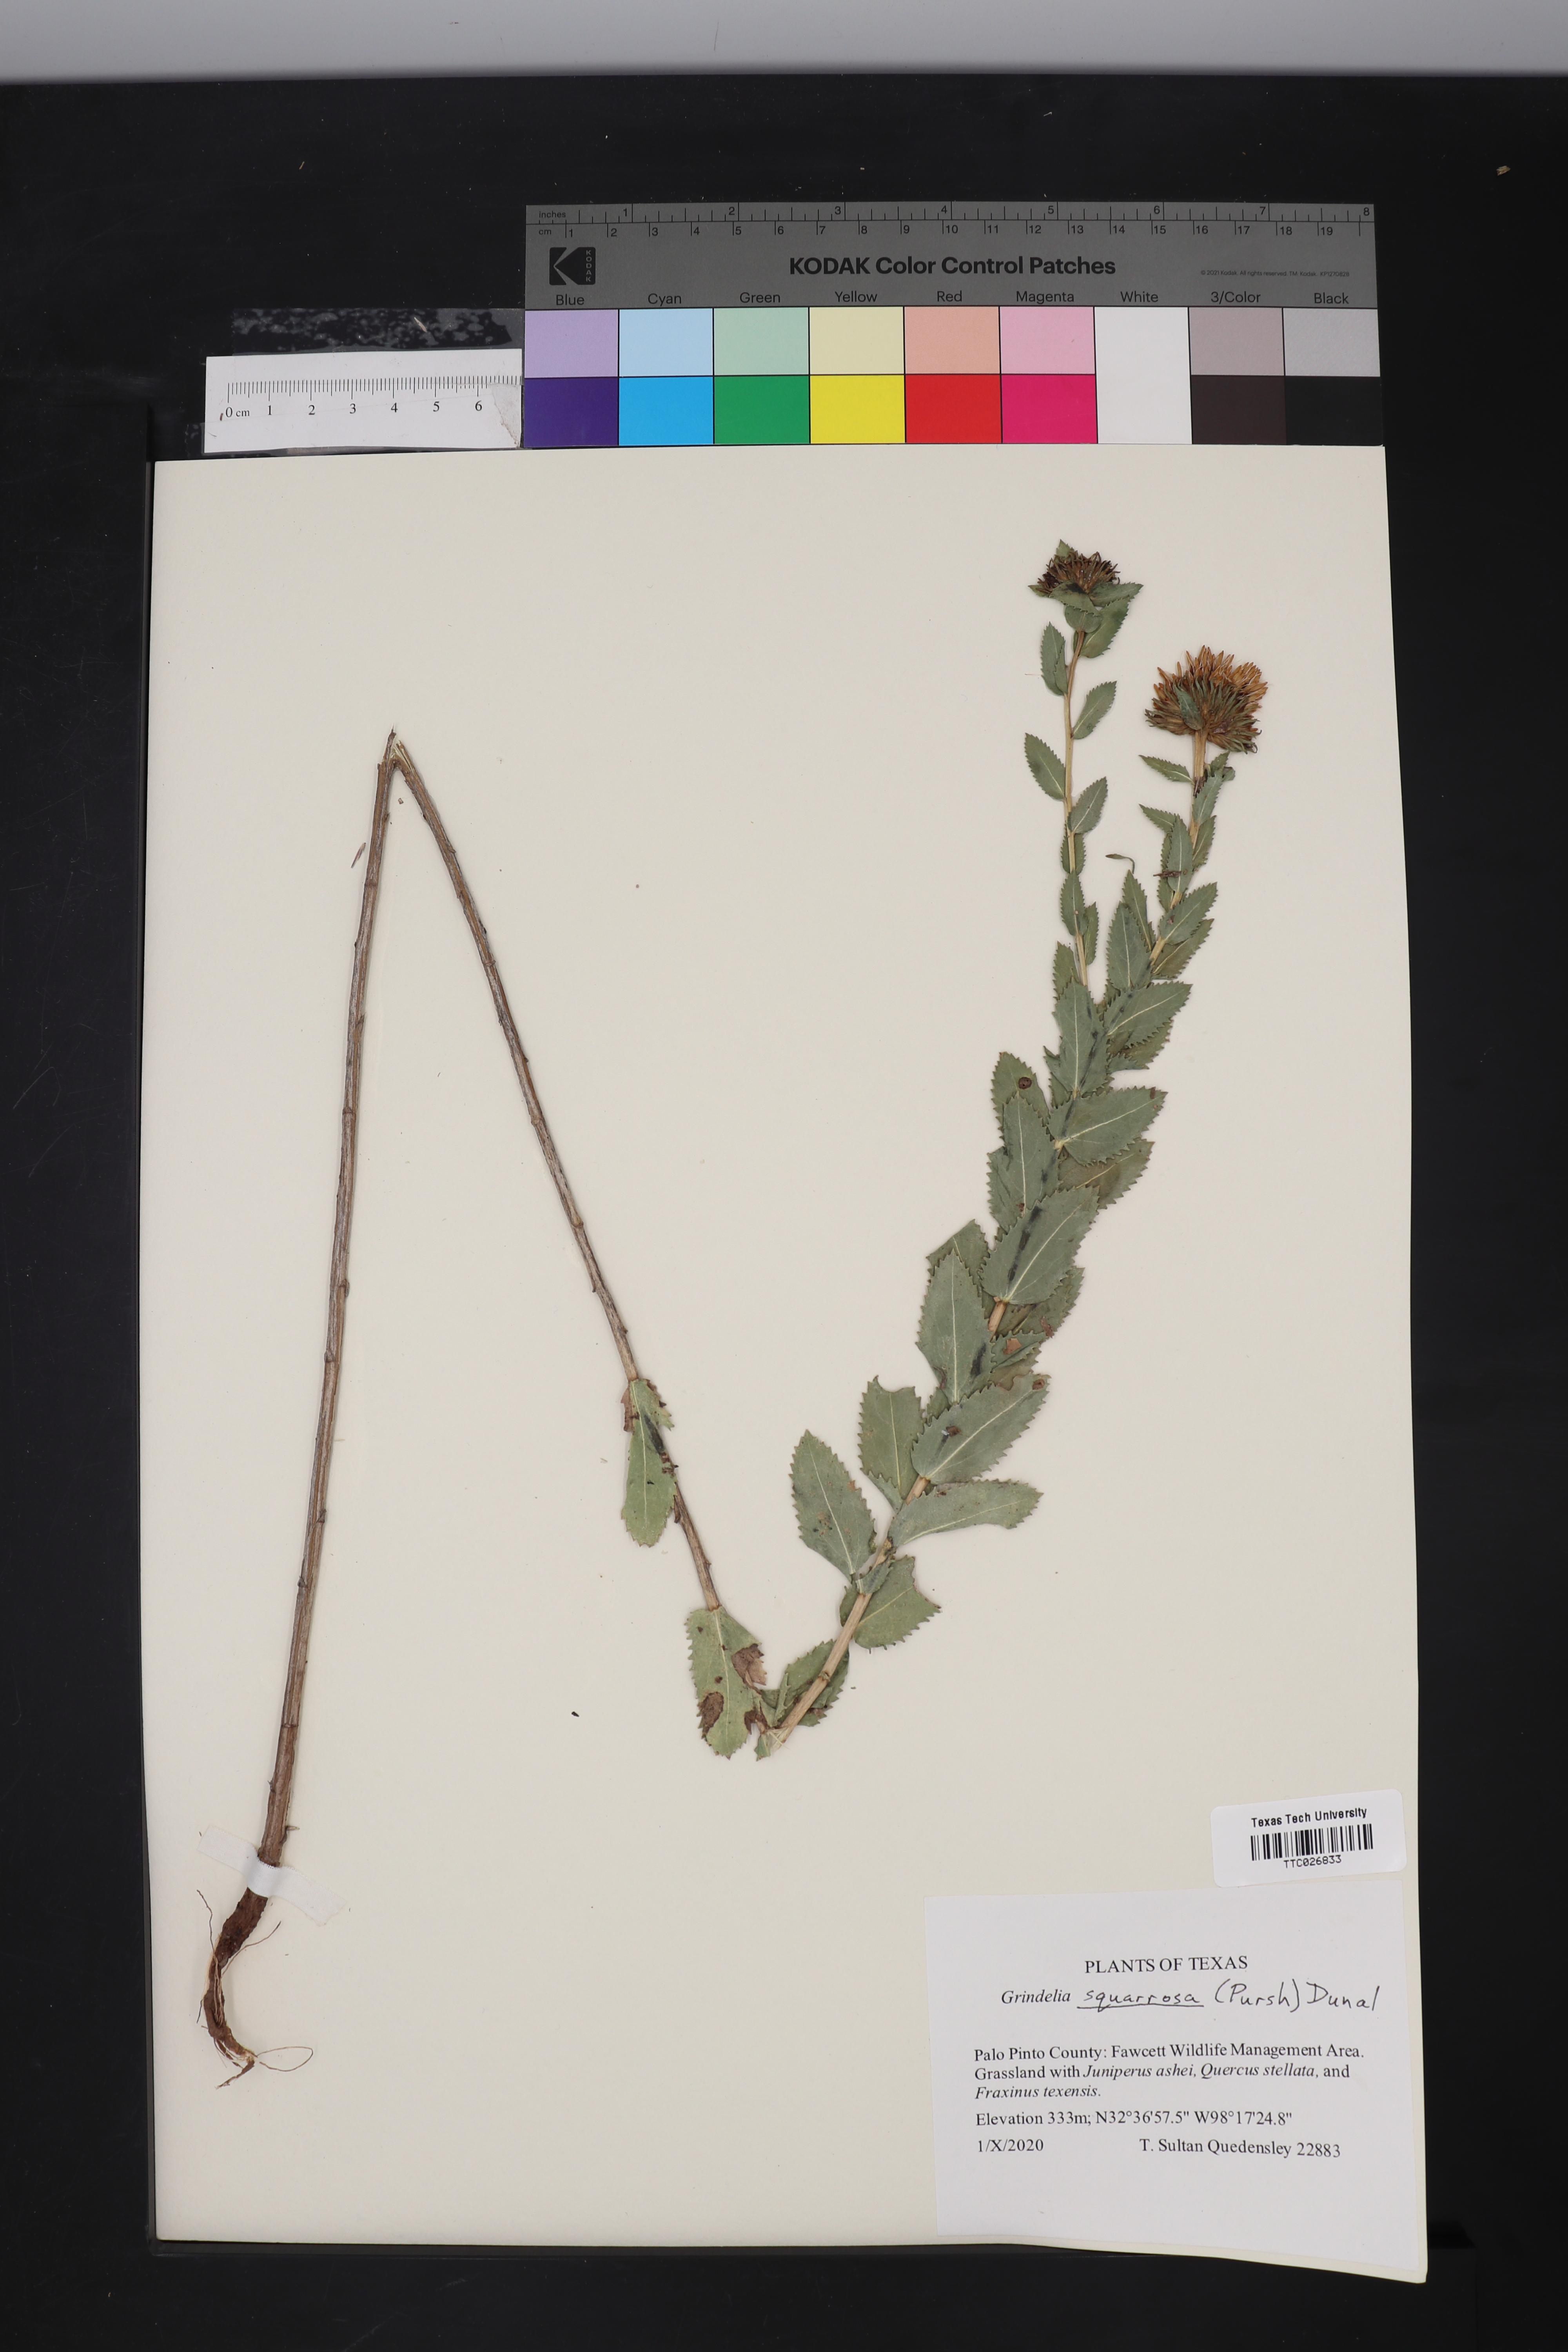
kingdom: Plantae
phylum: Tracheophyta
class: Magnoliopsida
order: Asterales
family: Asteraceae
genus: Grindelia
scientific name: Grindelia squarrosa
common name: Curly-cup gumweed
